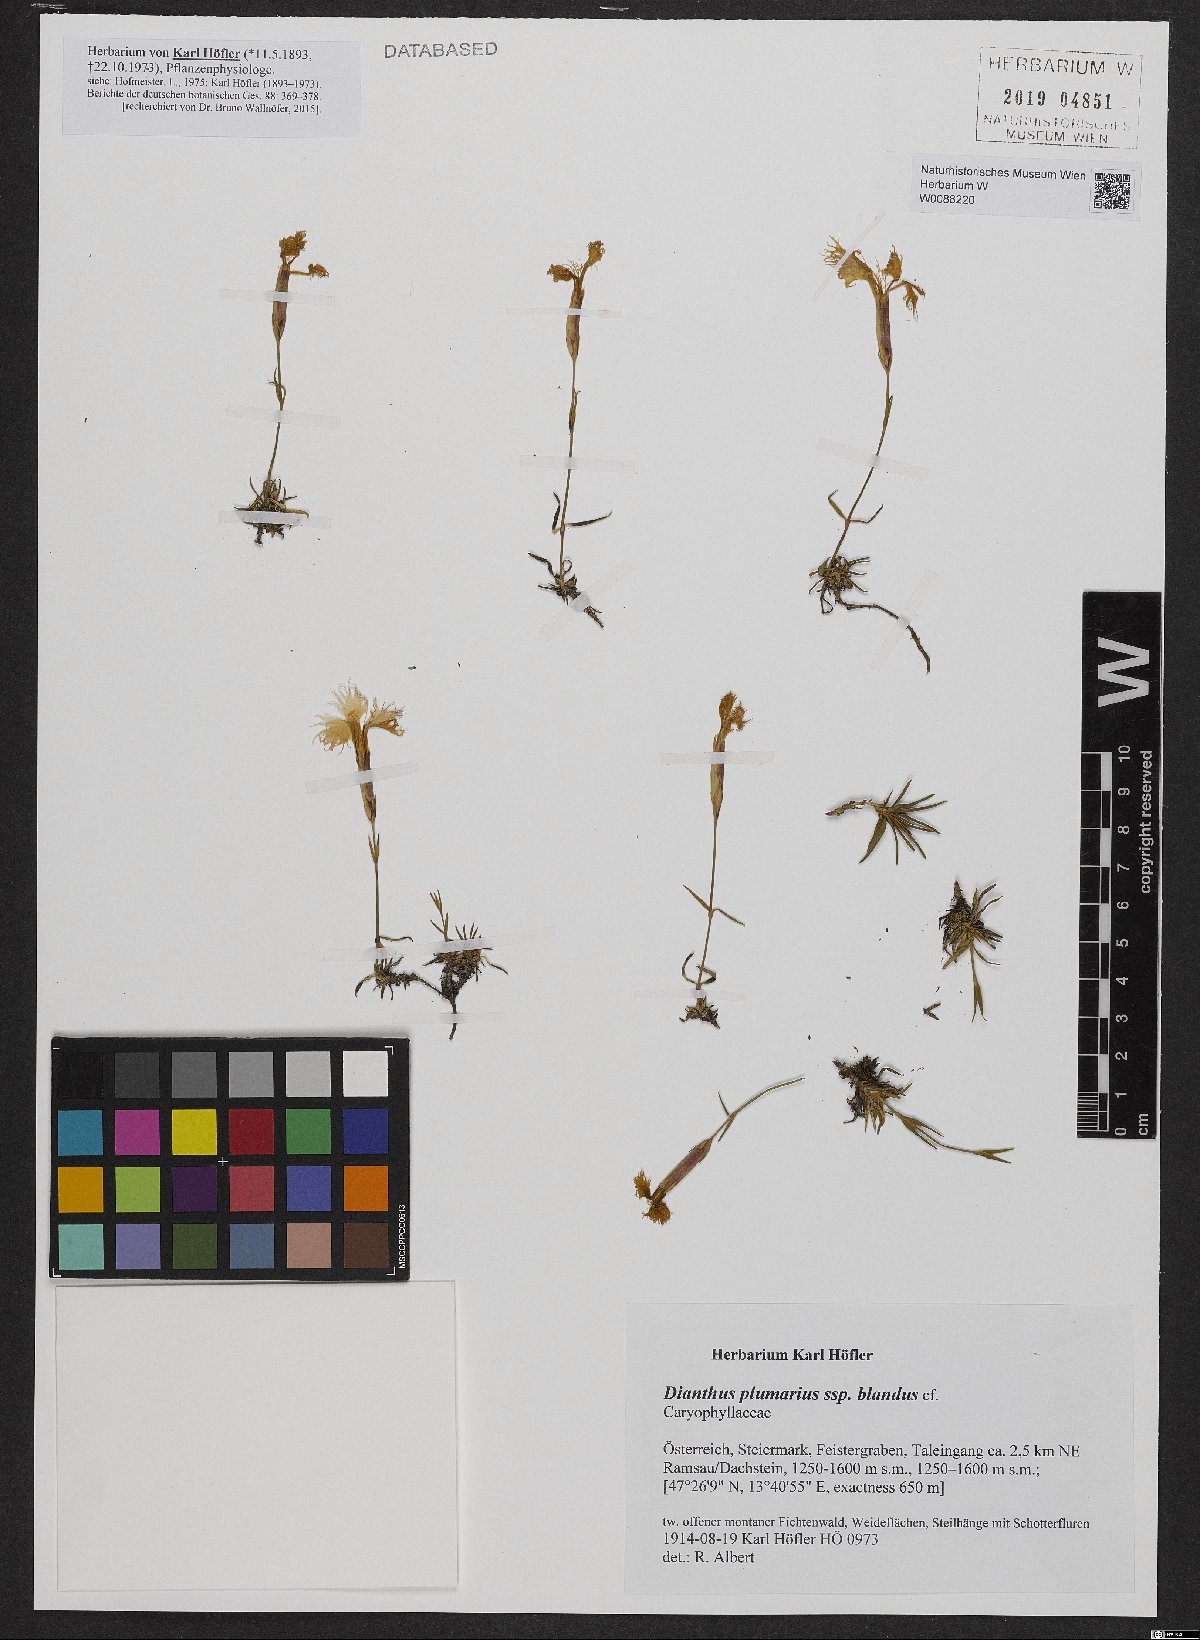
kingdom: Plantae
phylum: Tracheophyta
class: Magnoliopsida
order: Caryophyllales
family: Caryophyllaceae
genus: Dianthus
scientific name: Dianthus plumarius
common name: Pink
